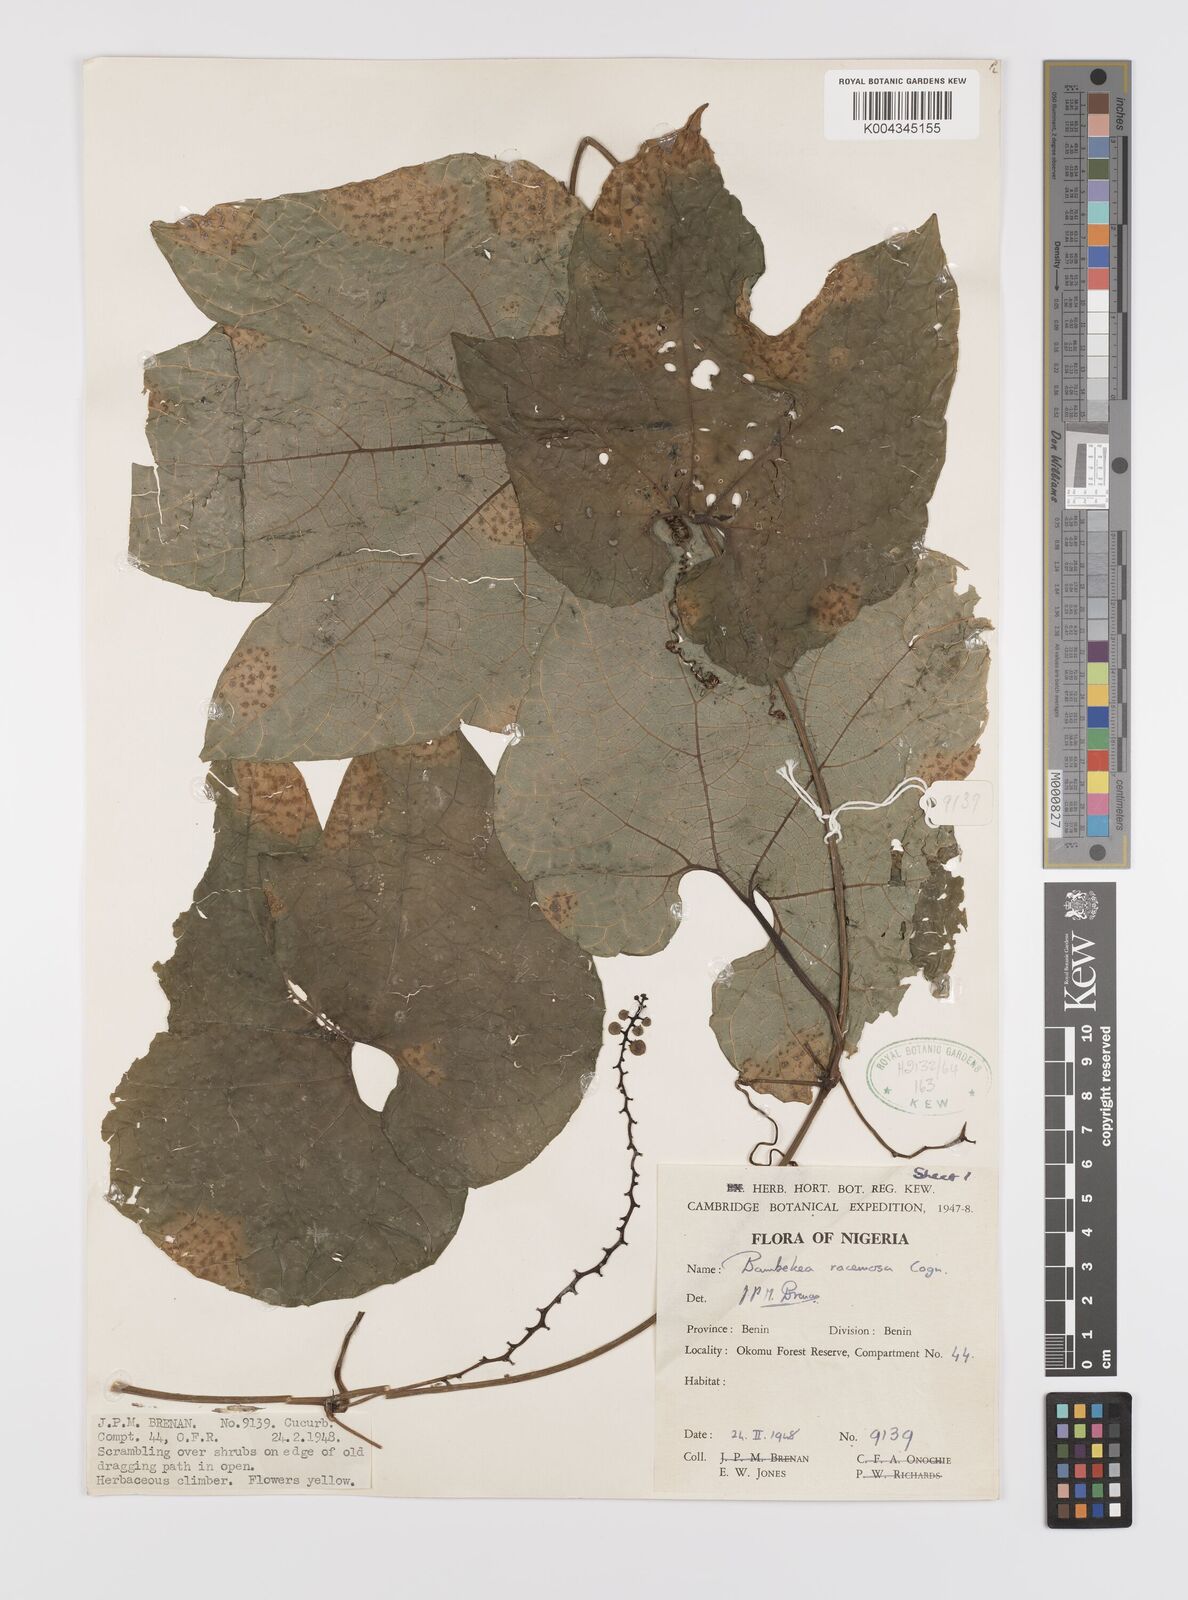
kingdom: Plantae
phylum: Tracheophyta
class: Magnoliopsida
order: Cucurbitales
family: Cucurbitaceae
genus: Bambekea
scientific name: Bambekea racemosa
